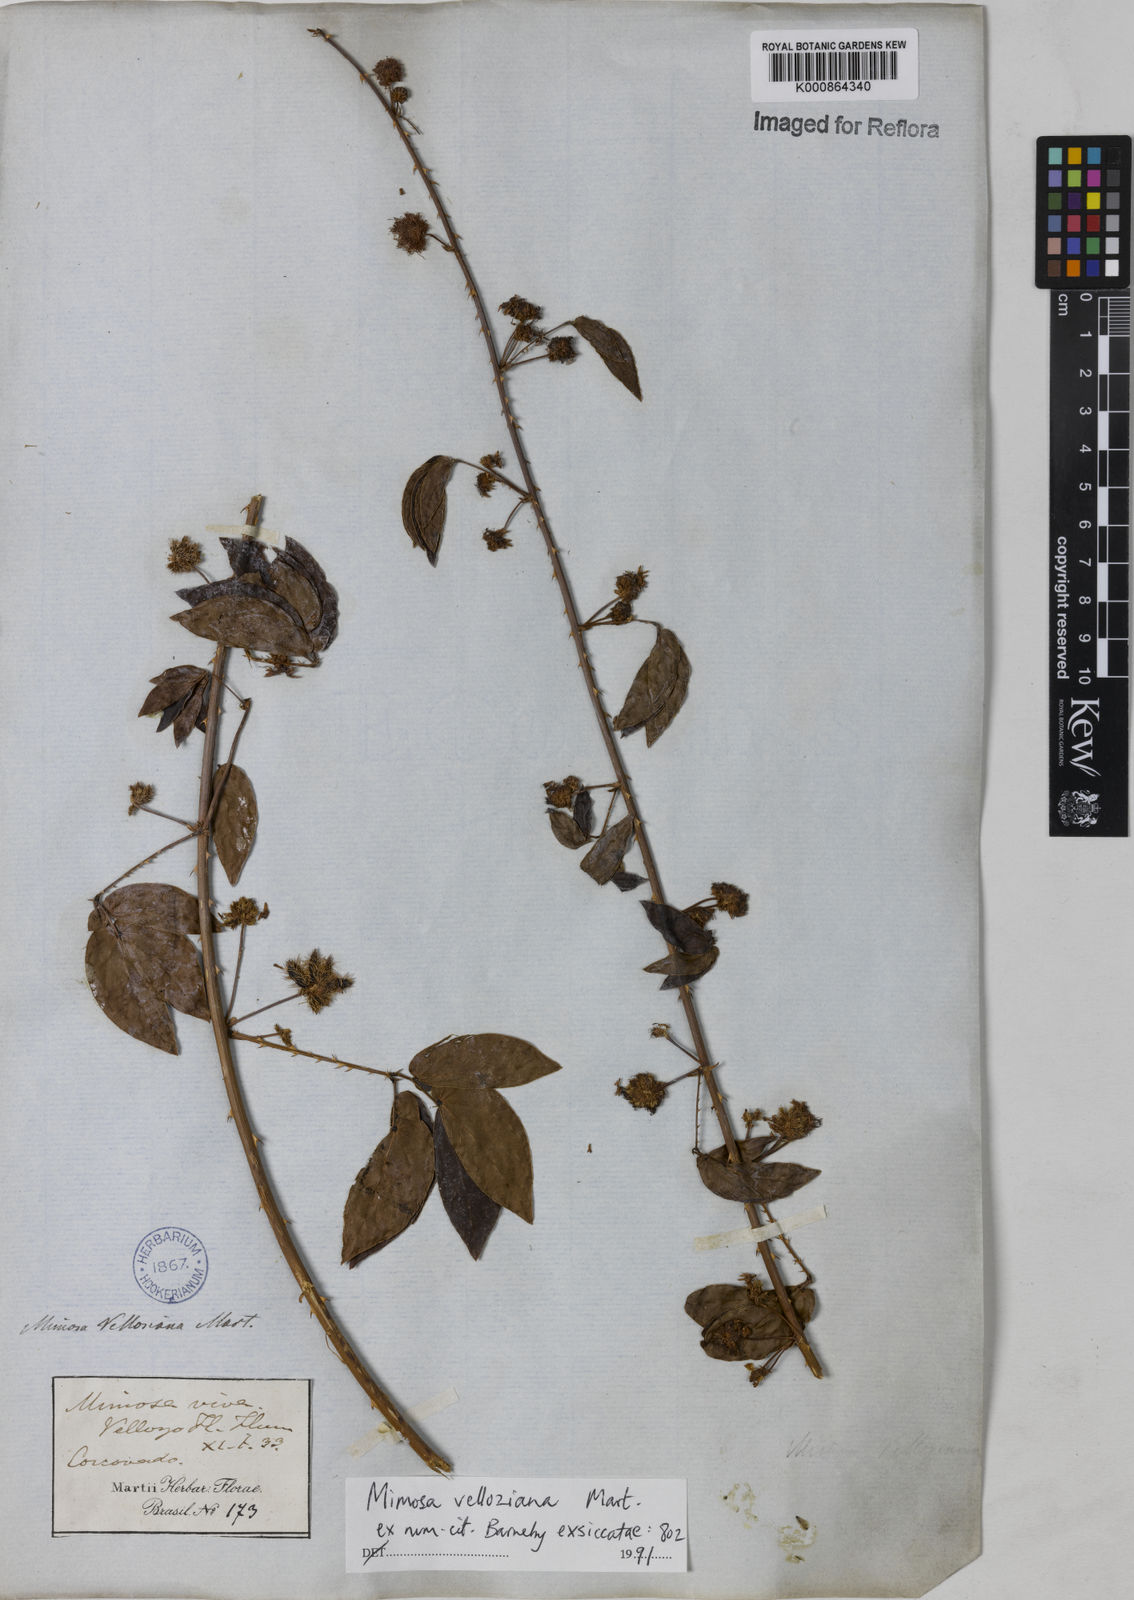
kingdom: Plantae
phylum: Tracheophyta
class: Magnoliopsida
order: Fabales
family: Fabaceae
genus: Mimosa
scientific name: Mimosa velloziana
